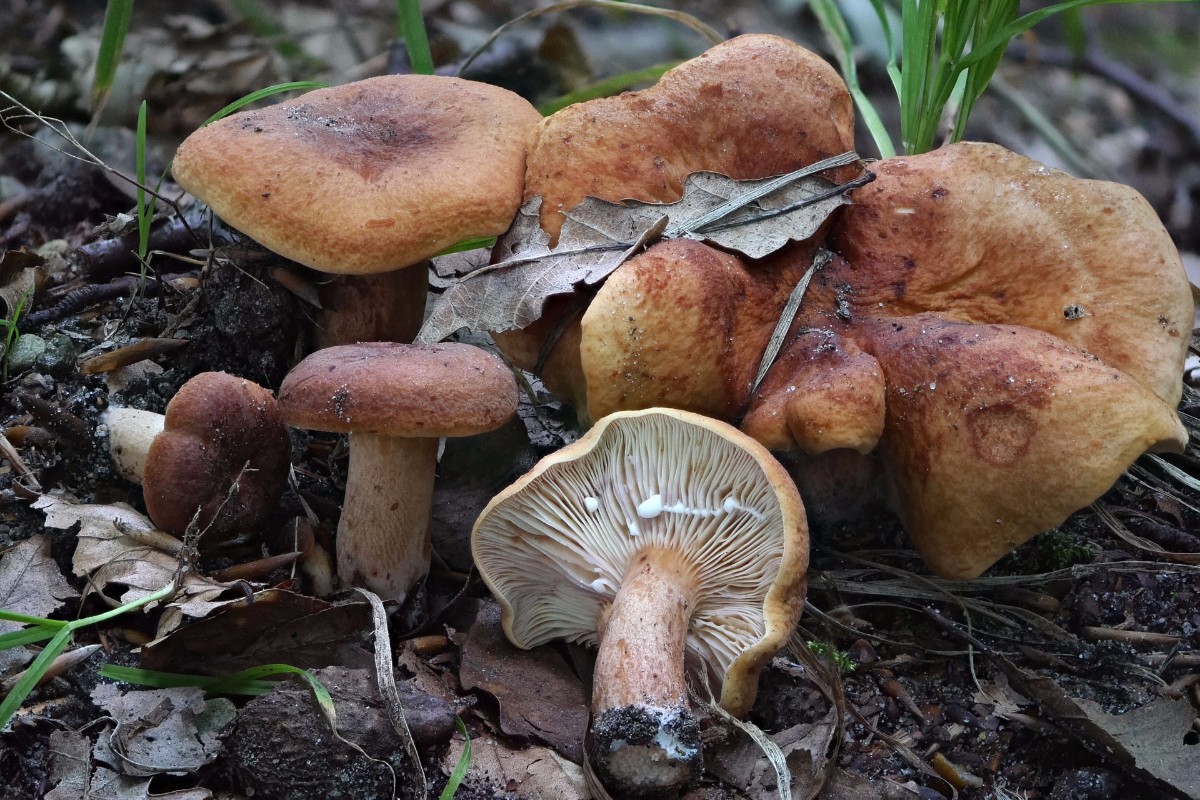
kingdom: Fungi
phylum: Basidiomycota
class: Agaricomycetes
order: Russulales
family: Russulaceae
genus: Lactarius
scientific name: Lactarius rubrocinctus
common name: halsbånd-mælkehat
